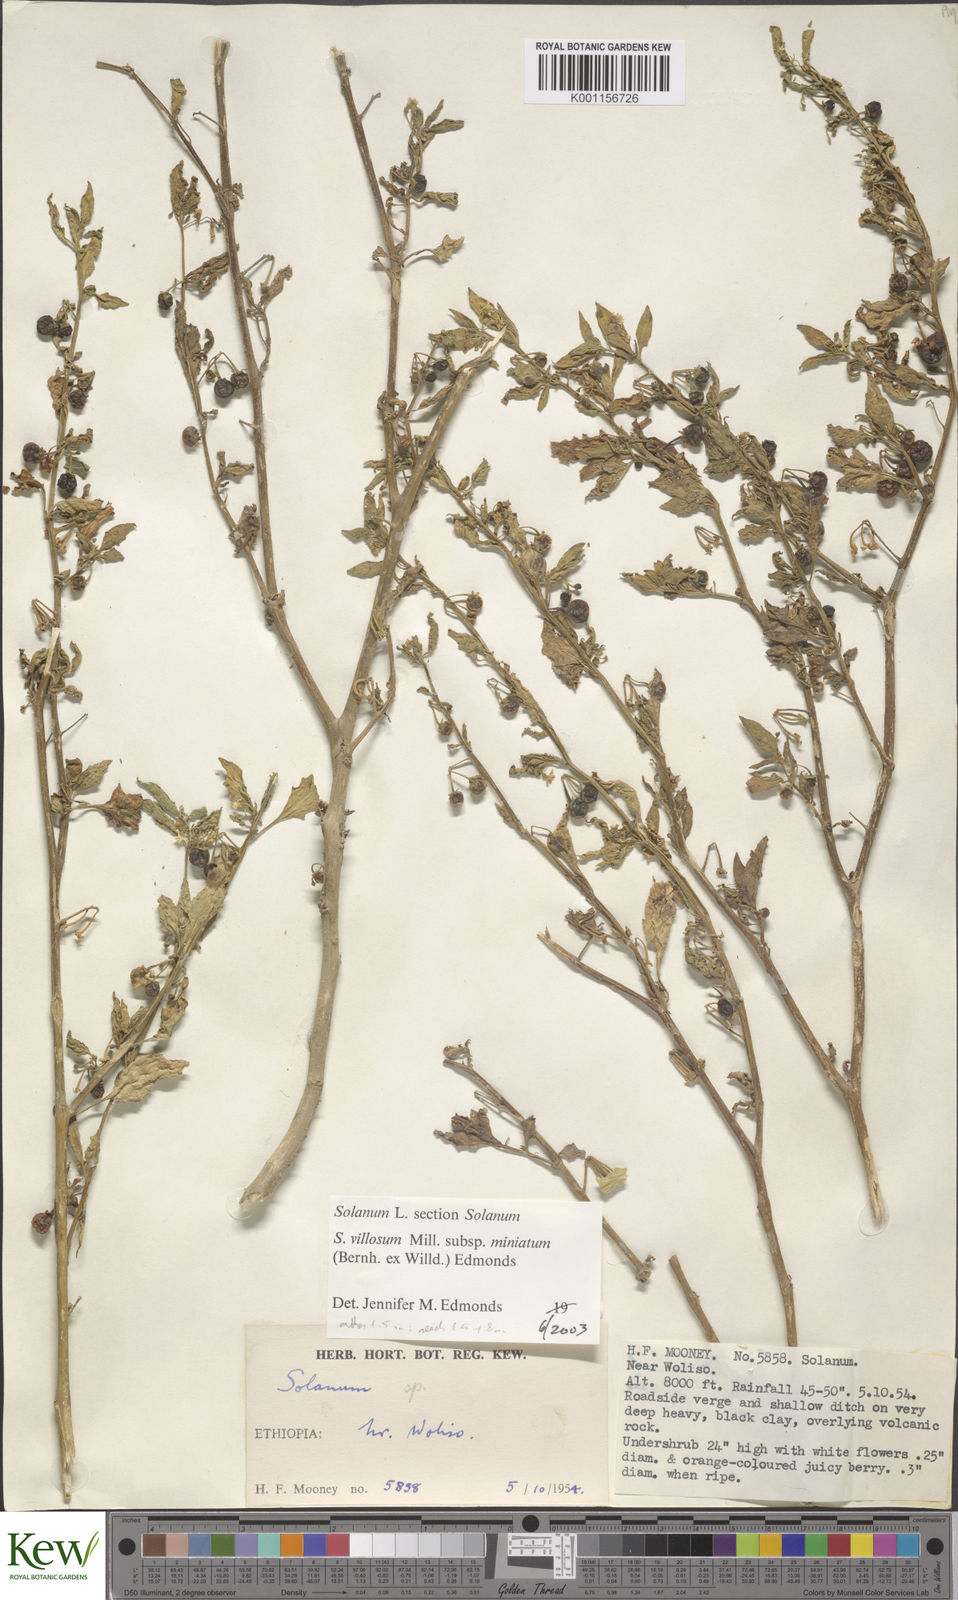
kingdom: Plantae
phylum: Tracheophyta
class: Magnoliopsida
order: Solanales
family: Solanaceae
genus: Solanum
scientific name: Solanum villosum
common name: Red nightshade
